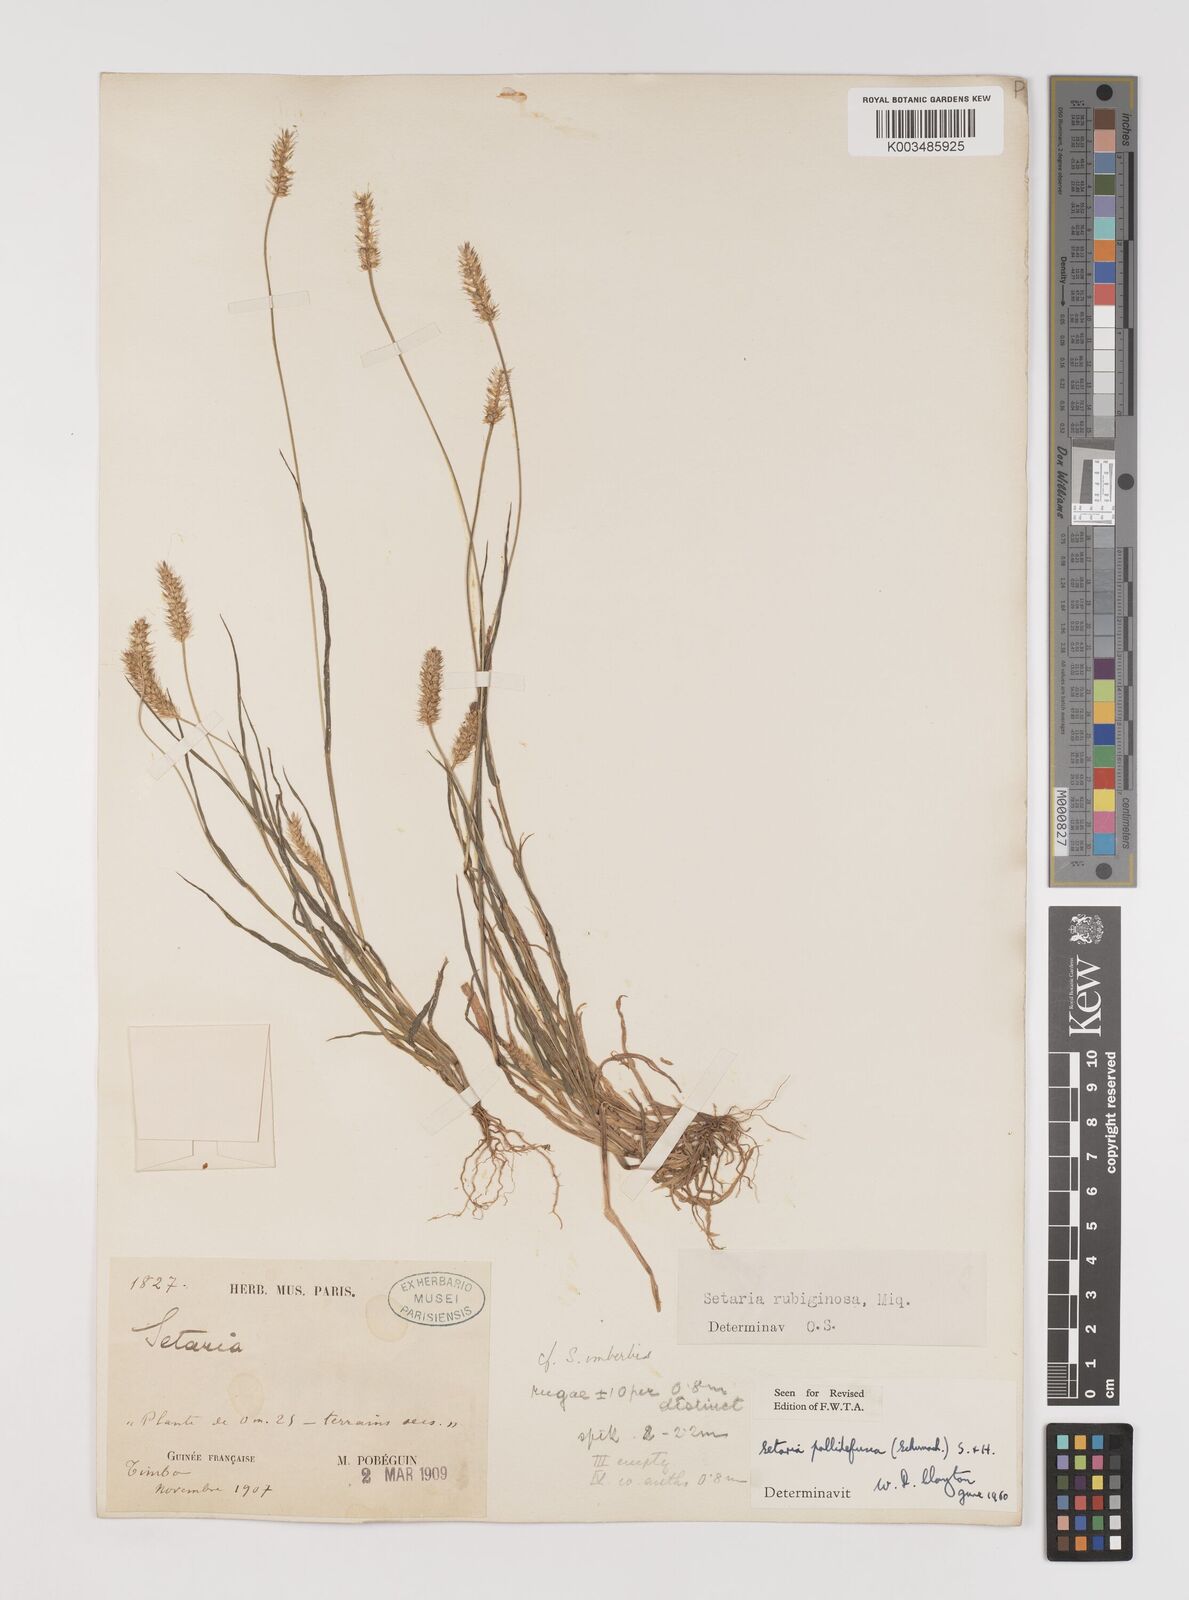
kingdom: Plantae
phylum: Tracheophyta
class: Liliopsida
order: Poales
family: Poaceae
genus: Setaria
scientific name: Setaria pumila
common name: Yellow bristle-grass
